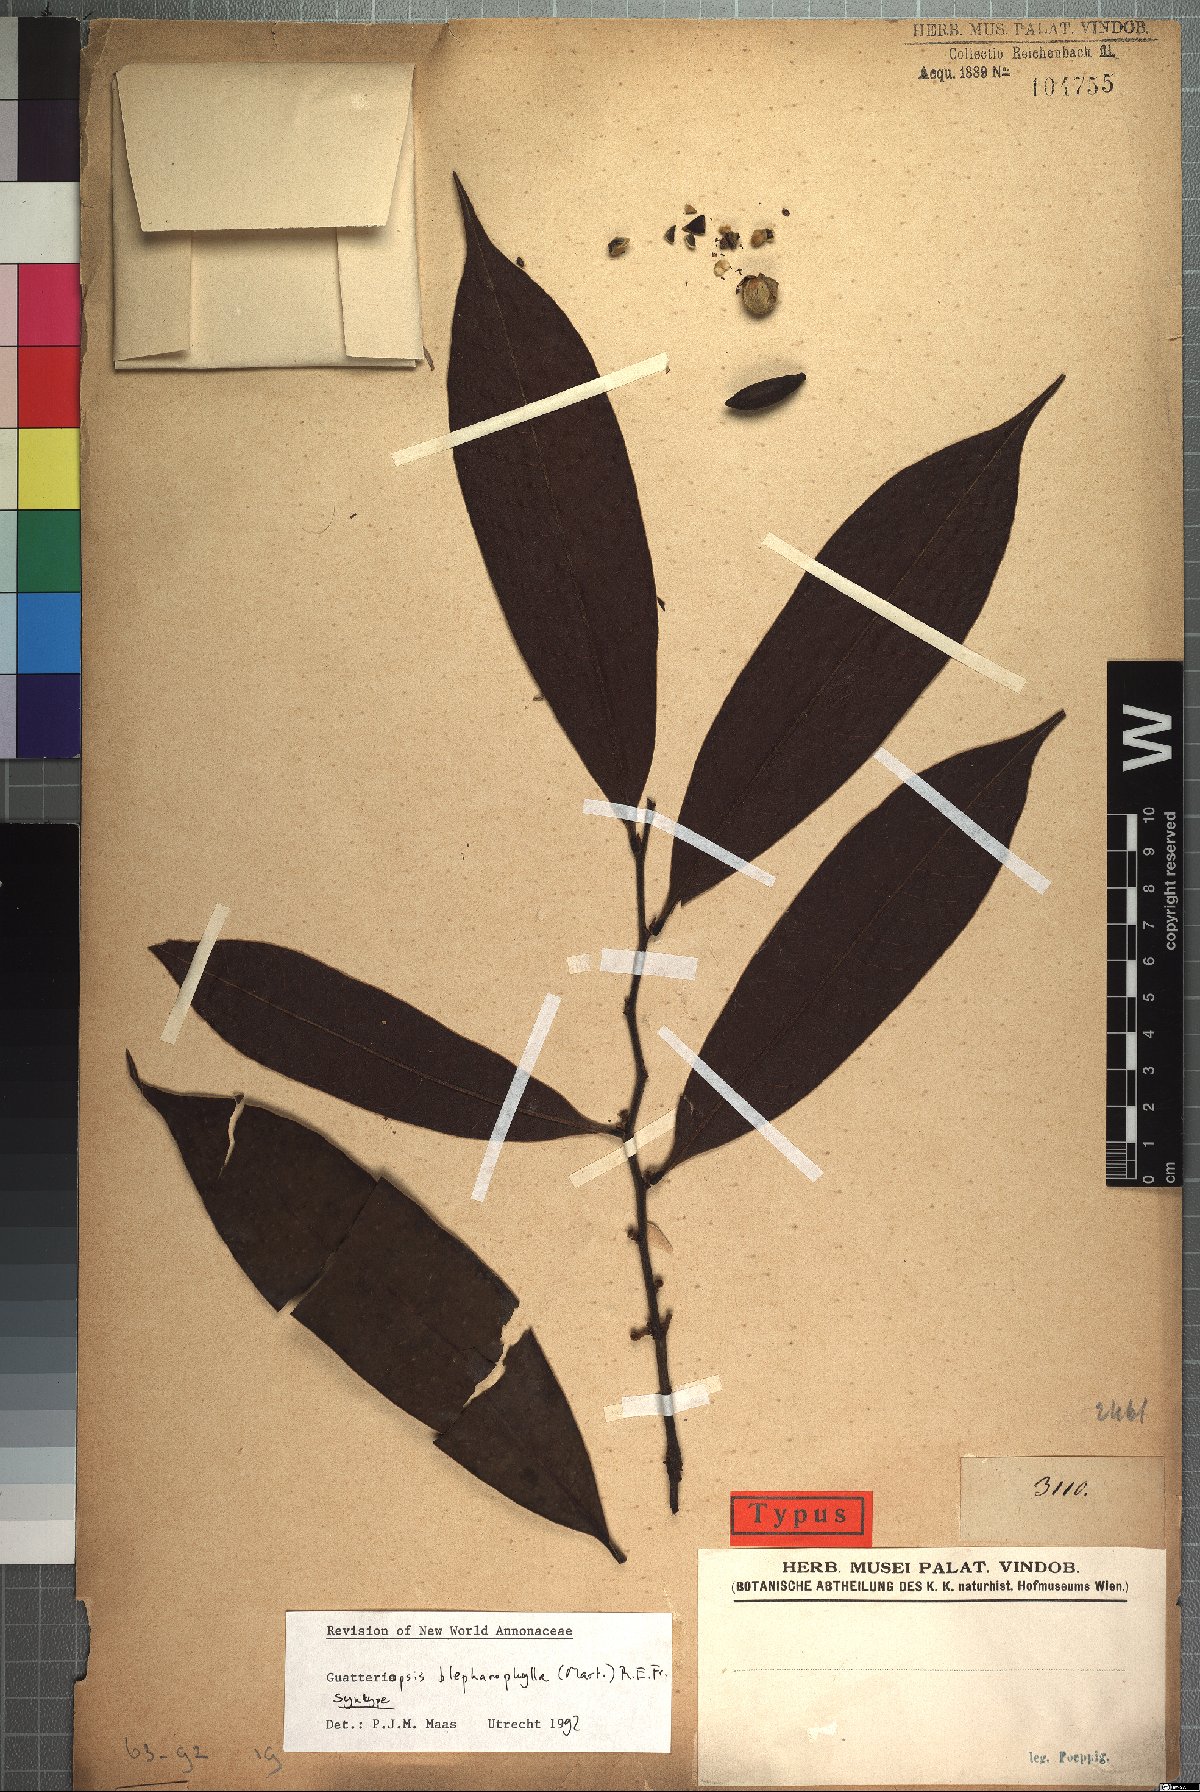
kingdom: Plantae
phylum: Tracheophyta
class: Magnoliopsida
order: Magnoliales
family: Annonaceae
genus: Guatteria
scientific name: Guatteria blepharophylla
